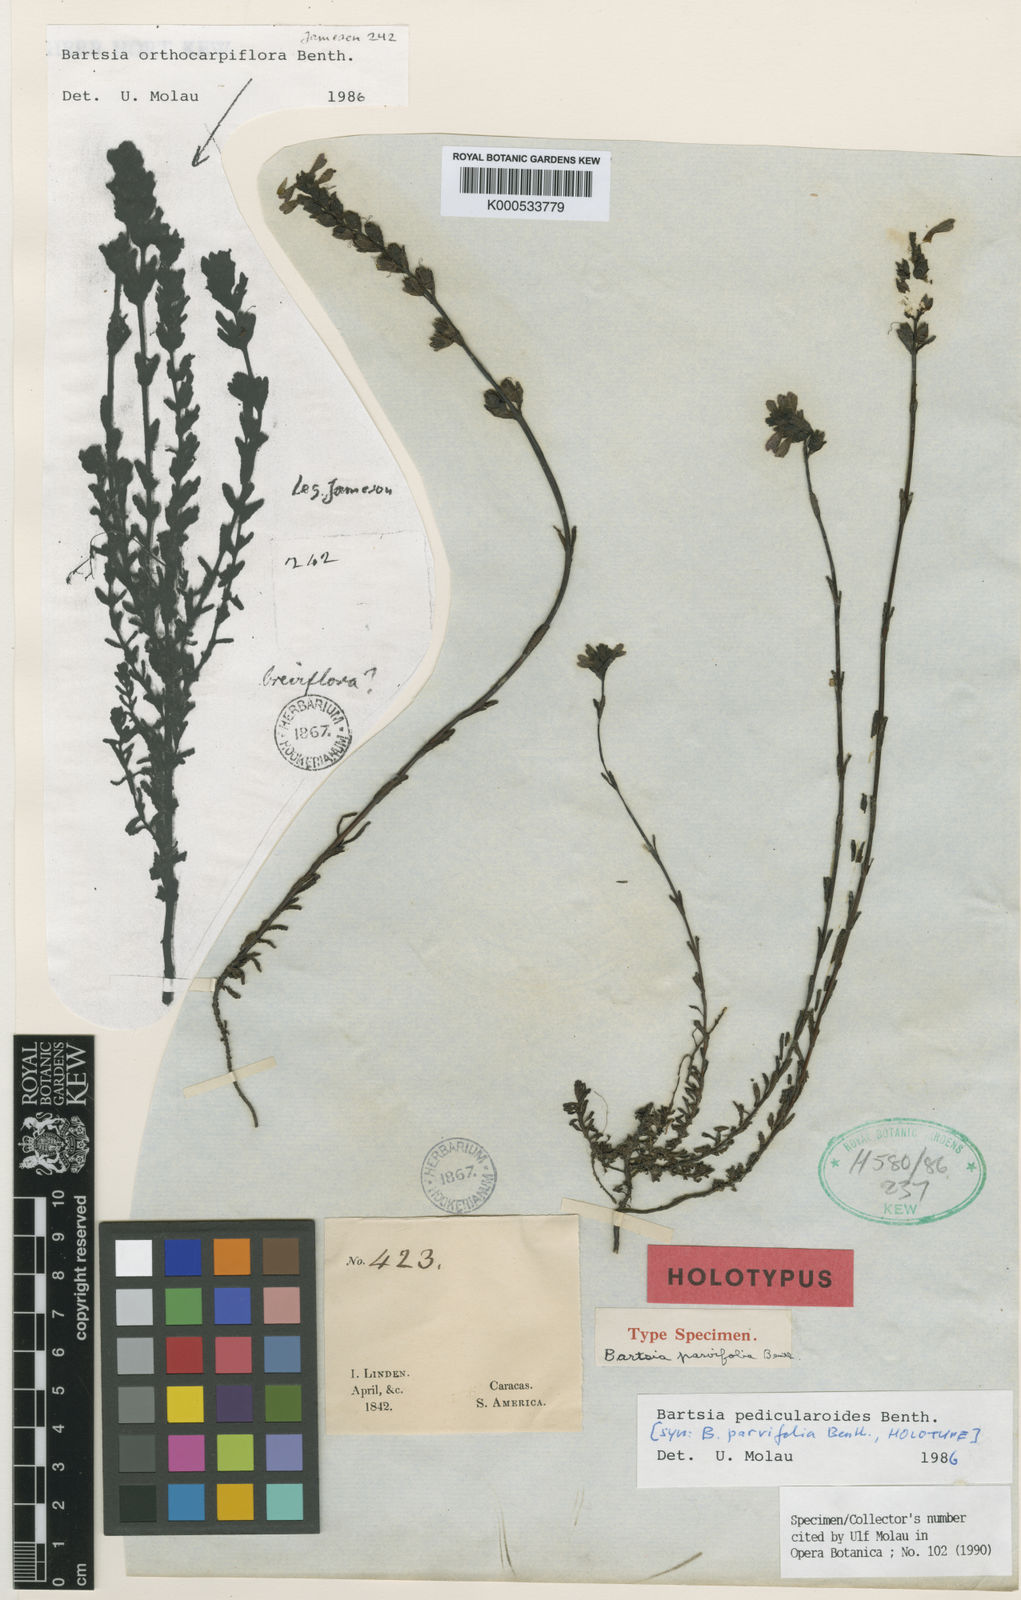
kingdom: Plantae
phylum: Tracheophyta
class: Magnoliopsida
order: Lamiales
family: Orobanchaceae
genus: Neobartsia
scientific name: Neobartsia pedicularoides
